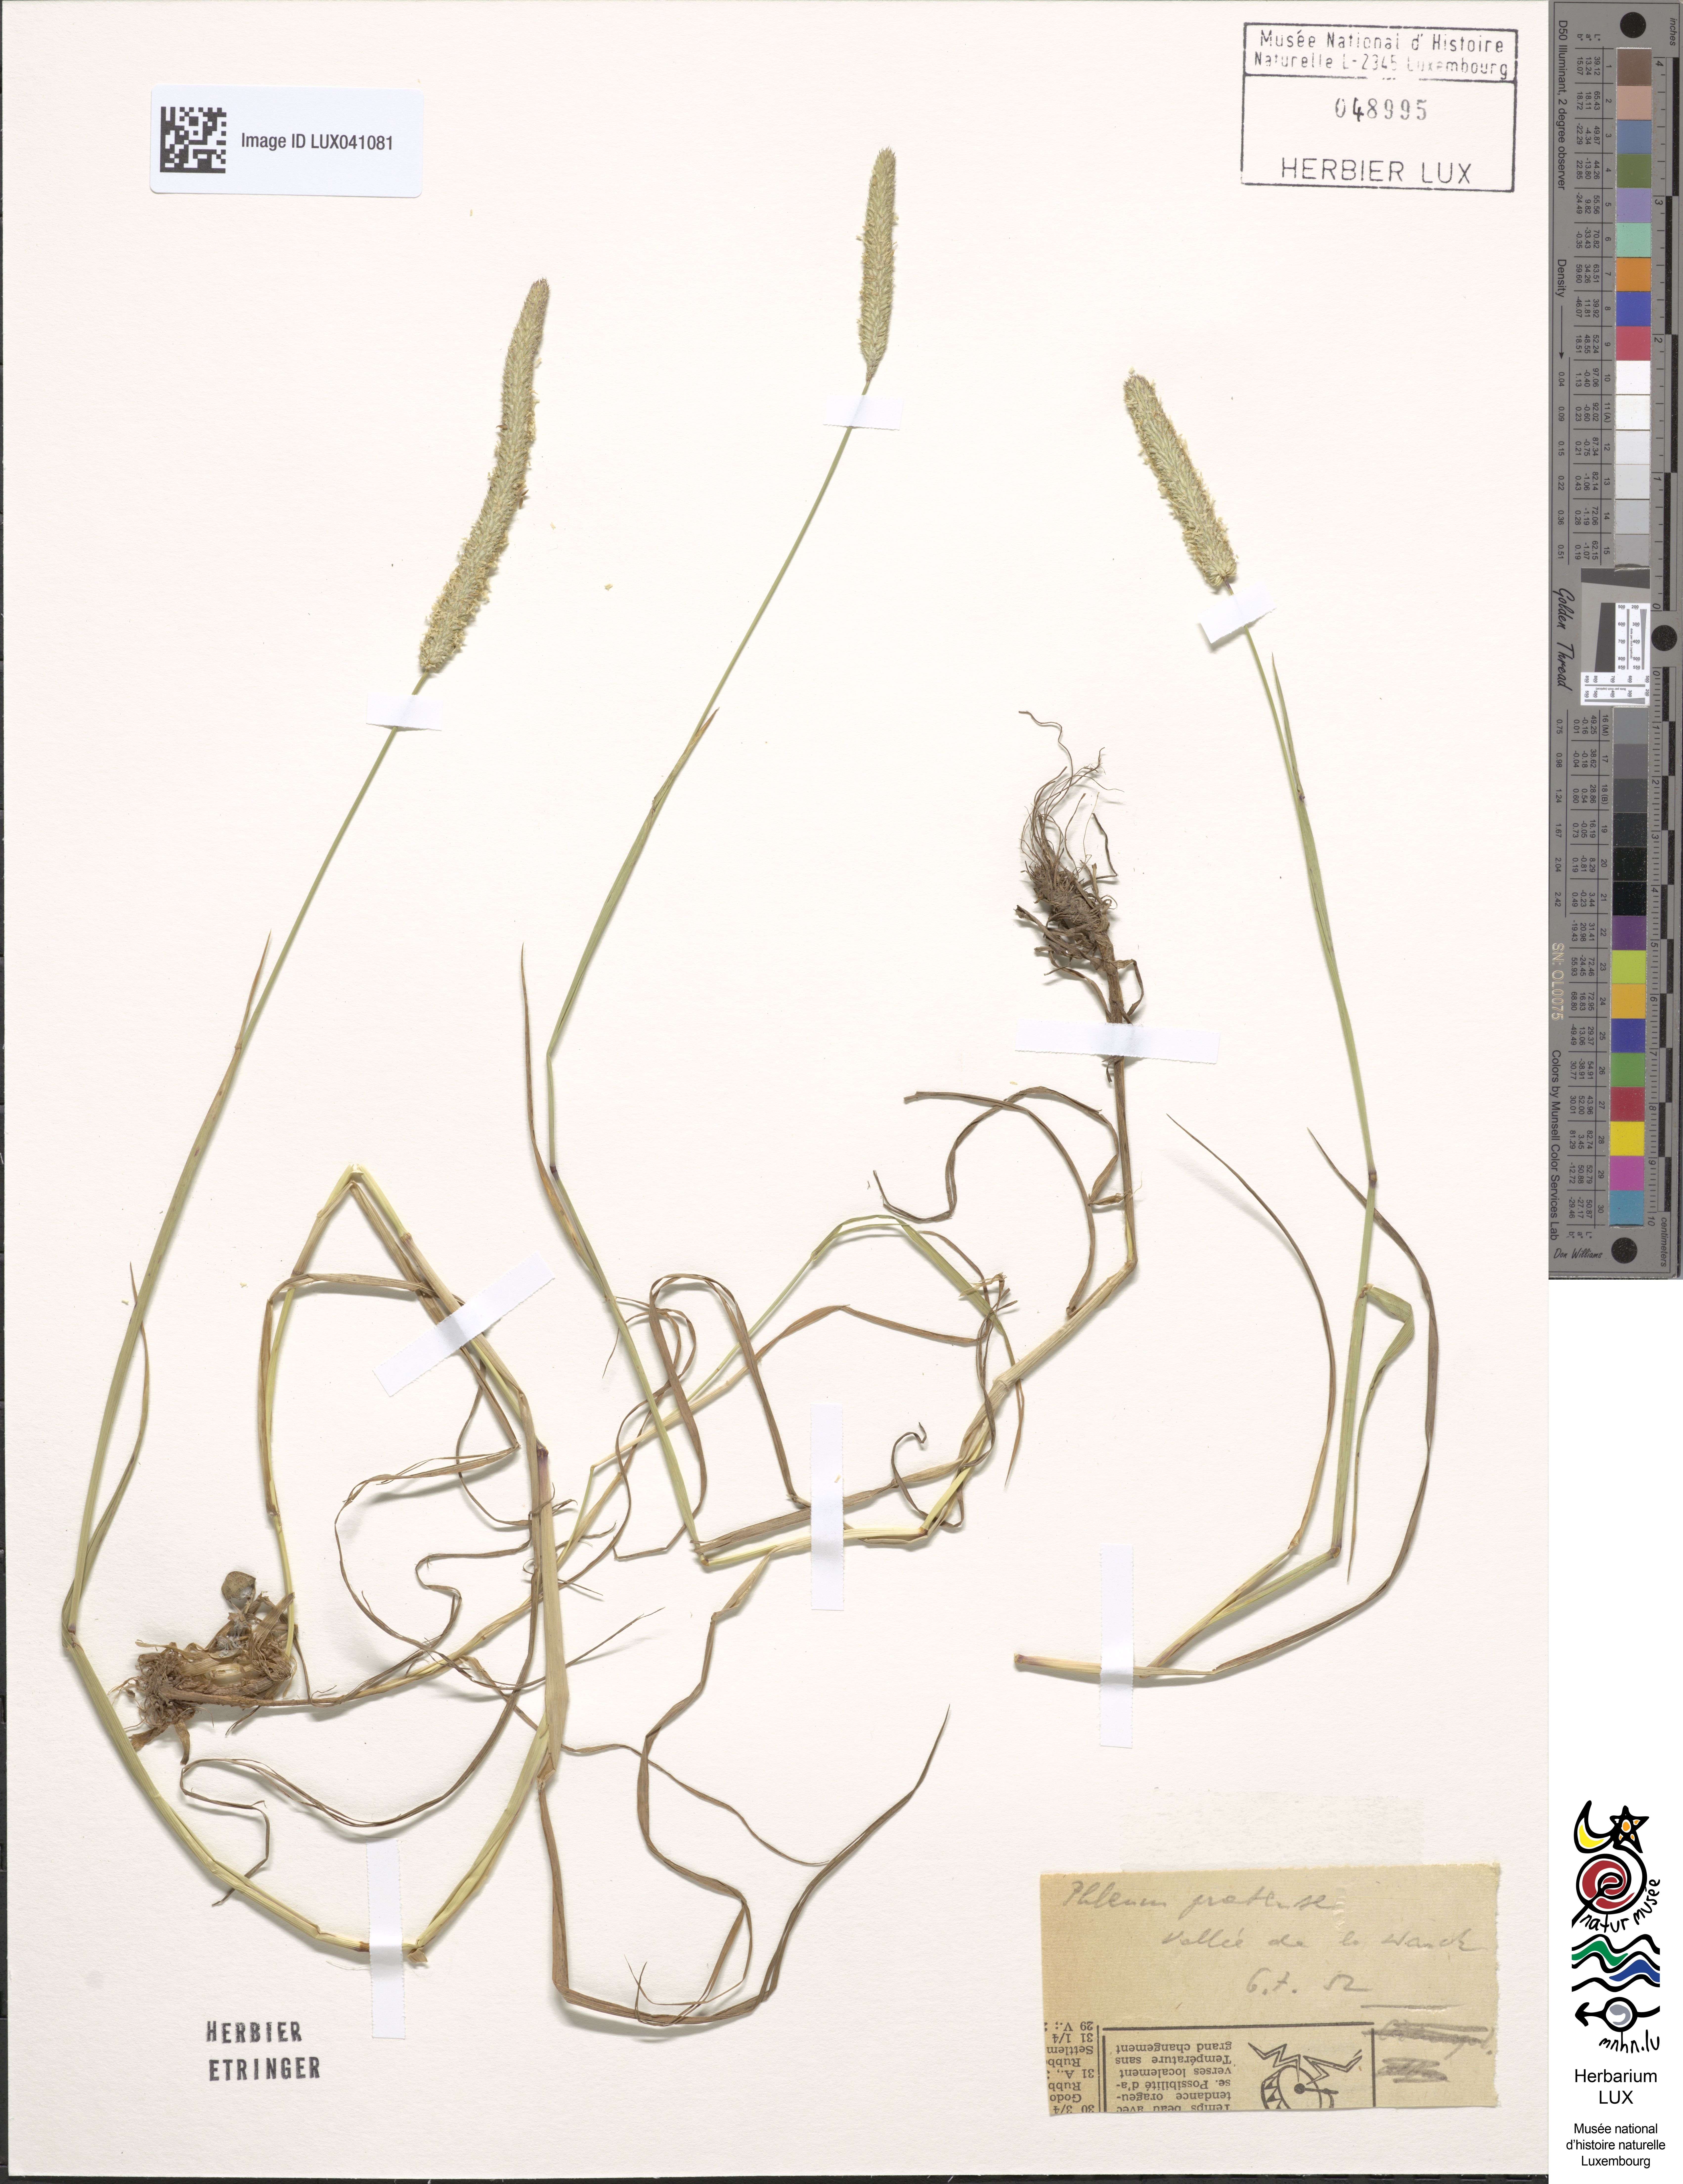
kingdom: Plantae
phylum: Tracheophyta
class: Liliopsida
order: Poales
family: Poaceae
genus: Phleum
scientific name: Phleum pratense
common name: Timothy grass
